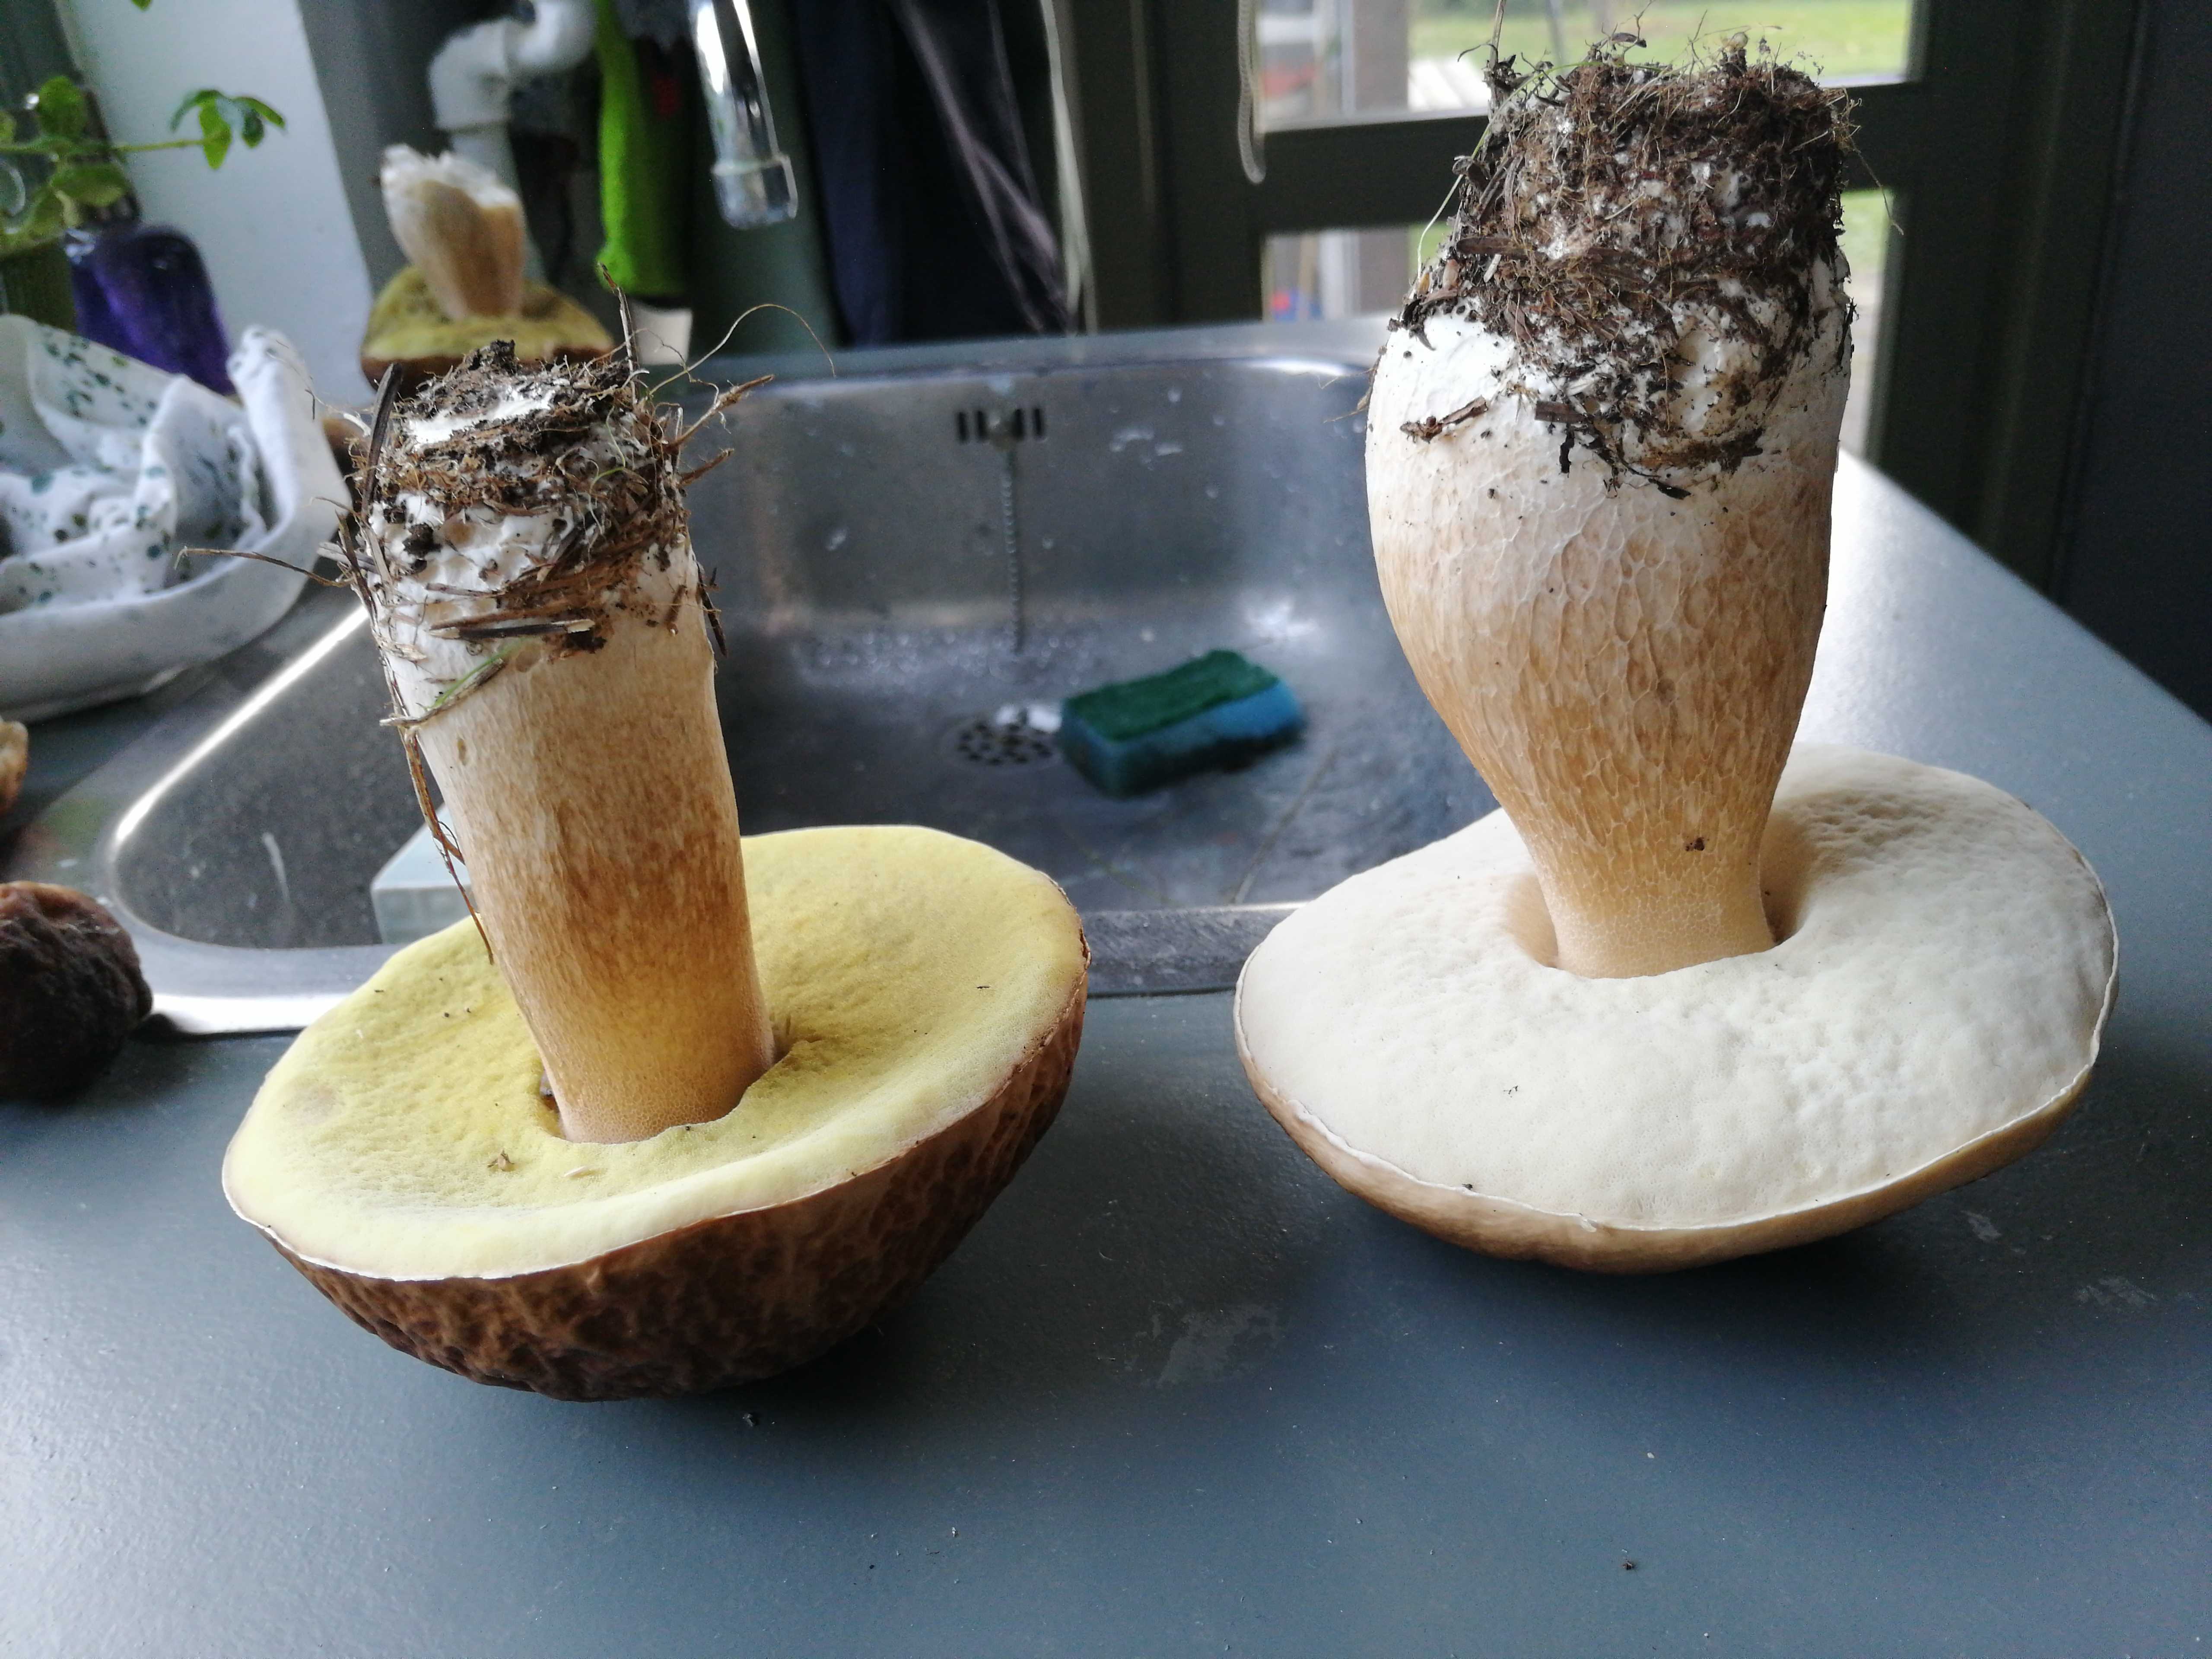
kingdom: Fungi
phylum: Basidiomycota
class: Agaricomycetes
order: Boletales
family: Boletaceae
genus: Boletus
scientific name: Boletus edulis
